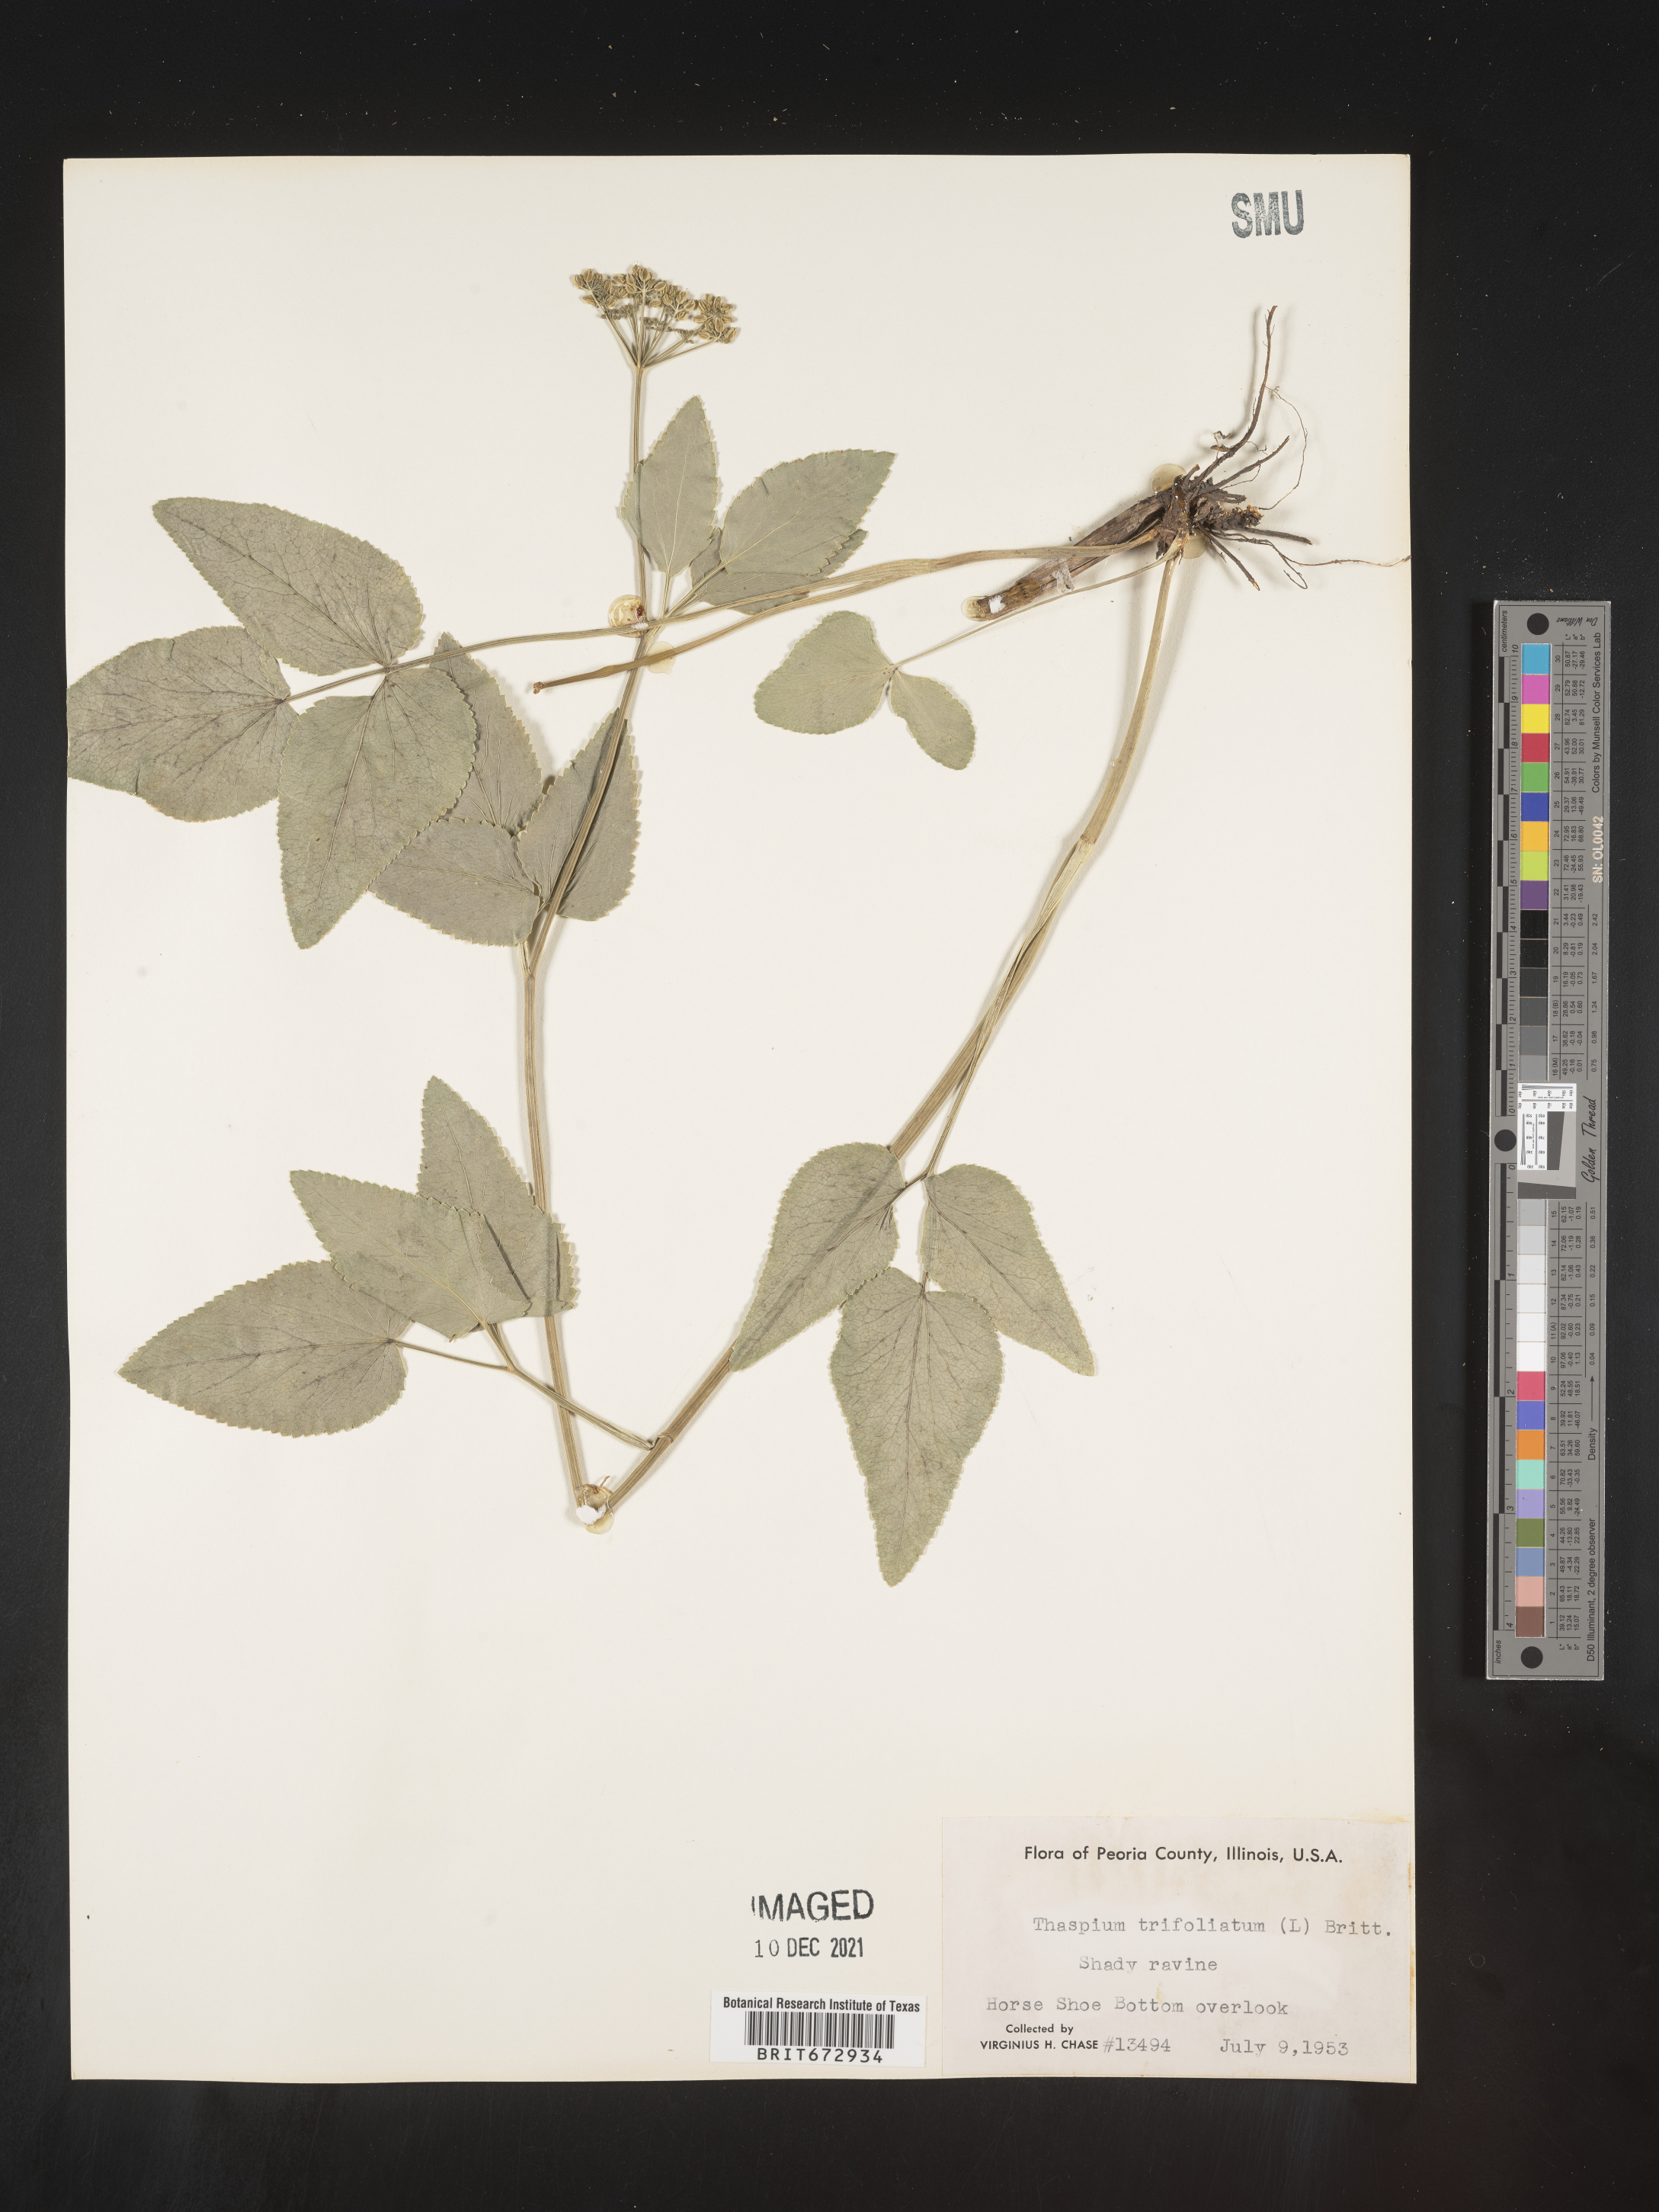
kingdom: Plantae
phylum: Tracheophyta
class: Magnoliopsida
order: Apiales
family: Apiaceae
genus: Thaspium
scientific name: Thaspium
